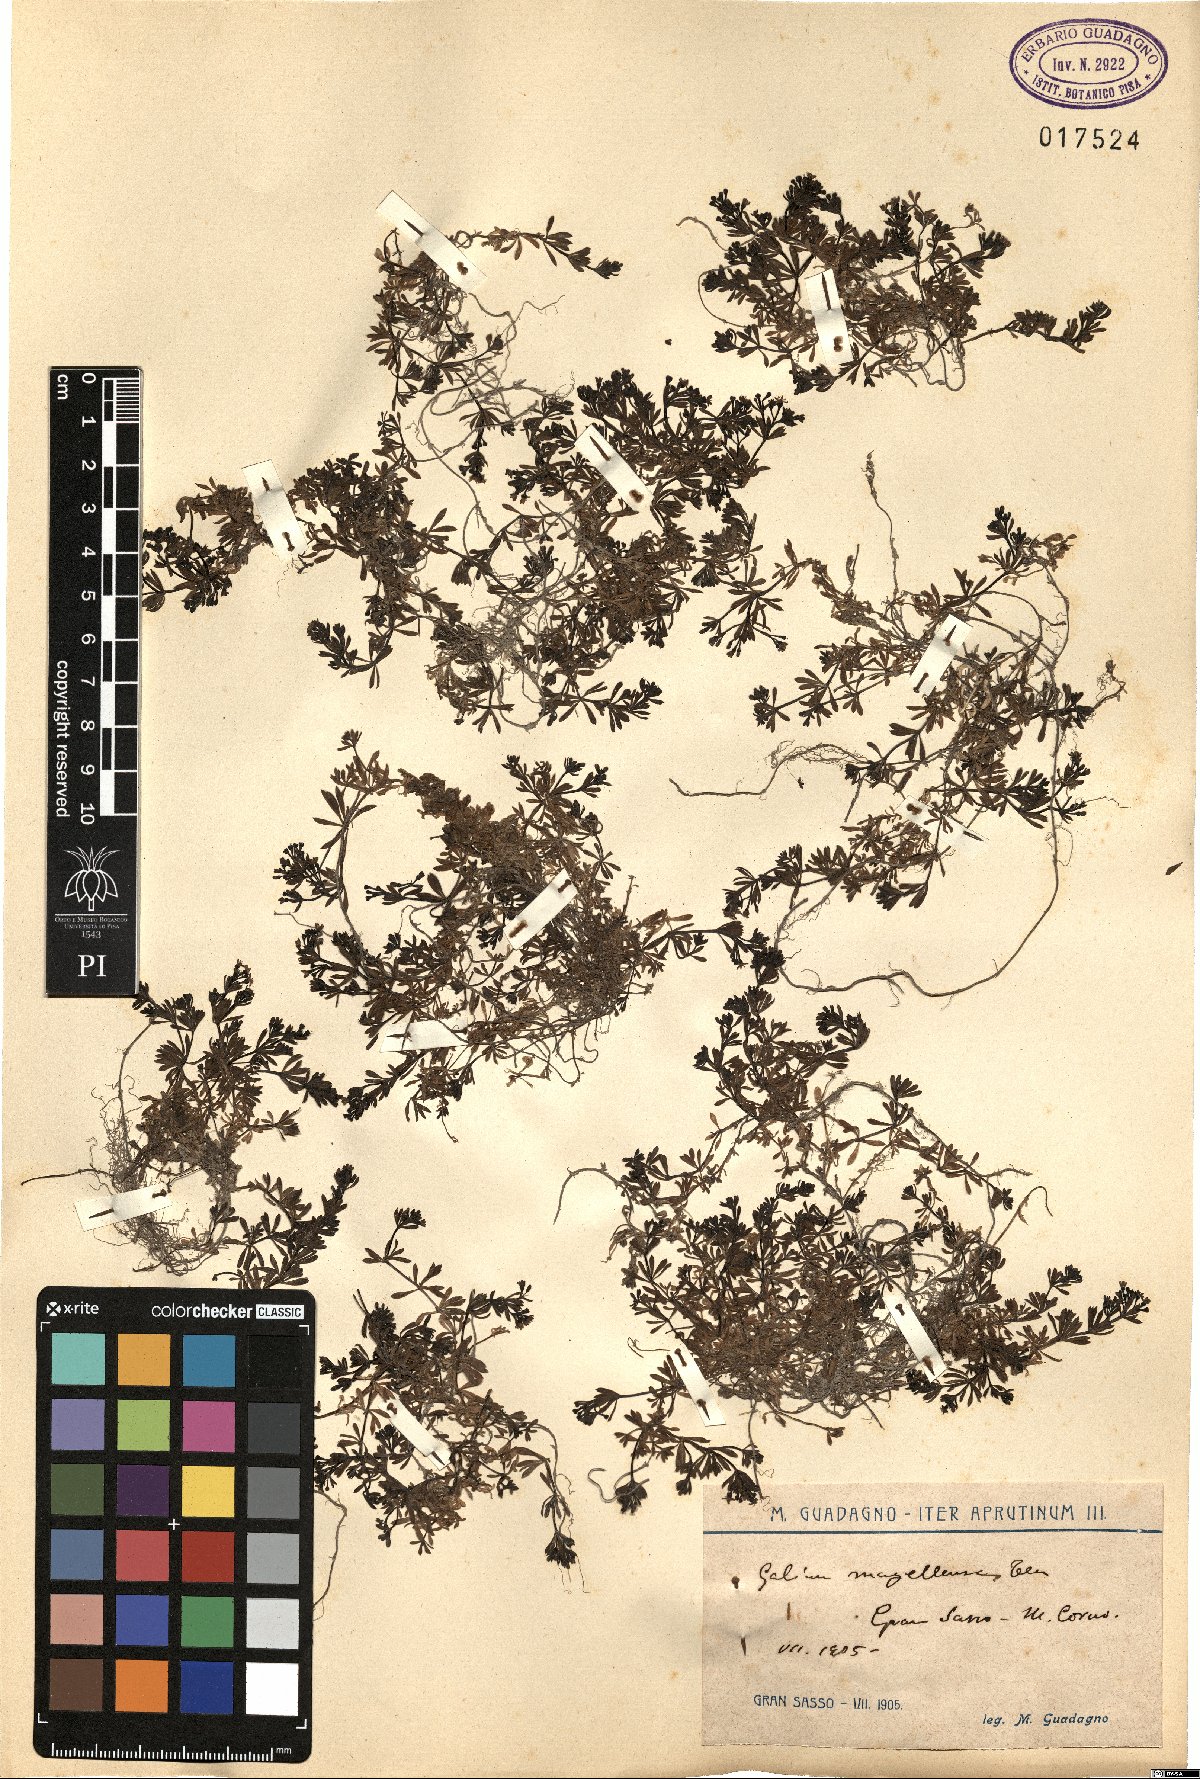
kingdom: Plantae
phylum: Tracheophyta
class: Magnoliopsida
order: Gentianales
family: Rubiaceae
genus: Galium
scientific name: Galium magellense
